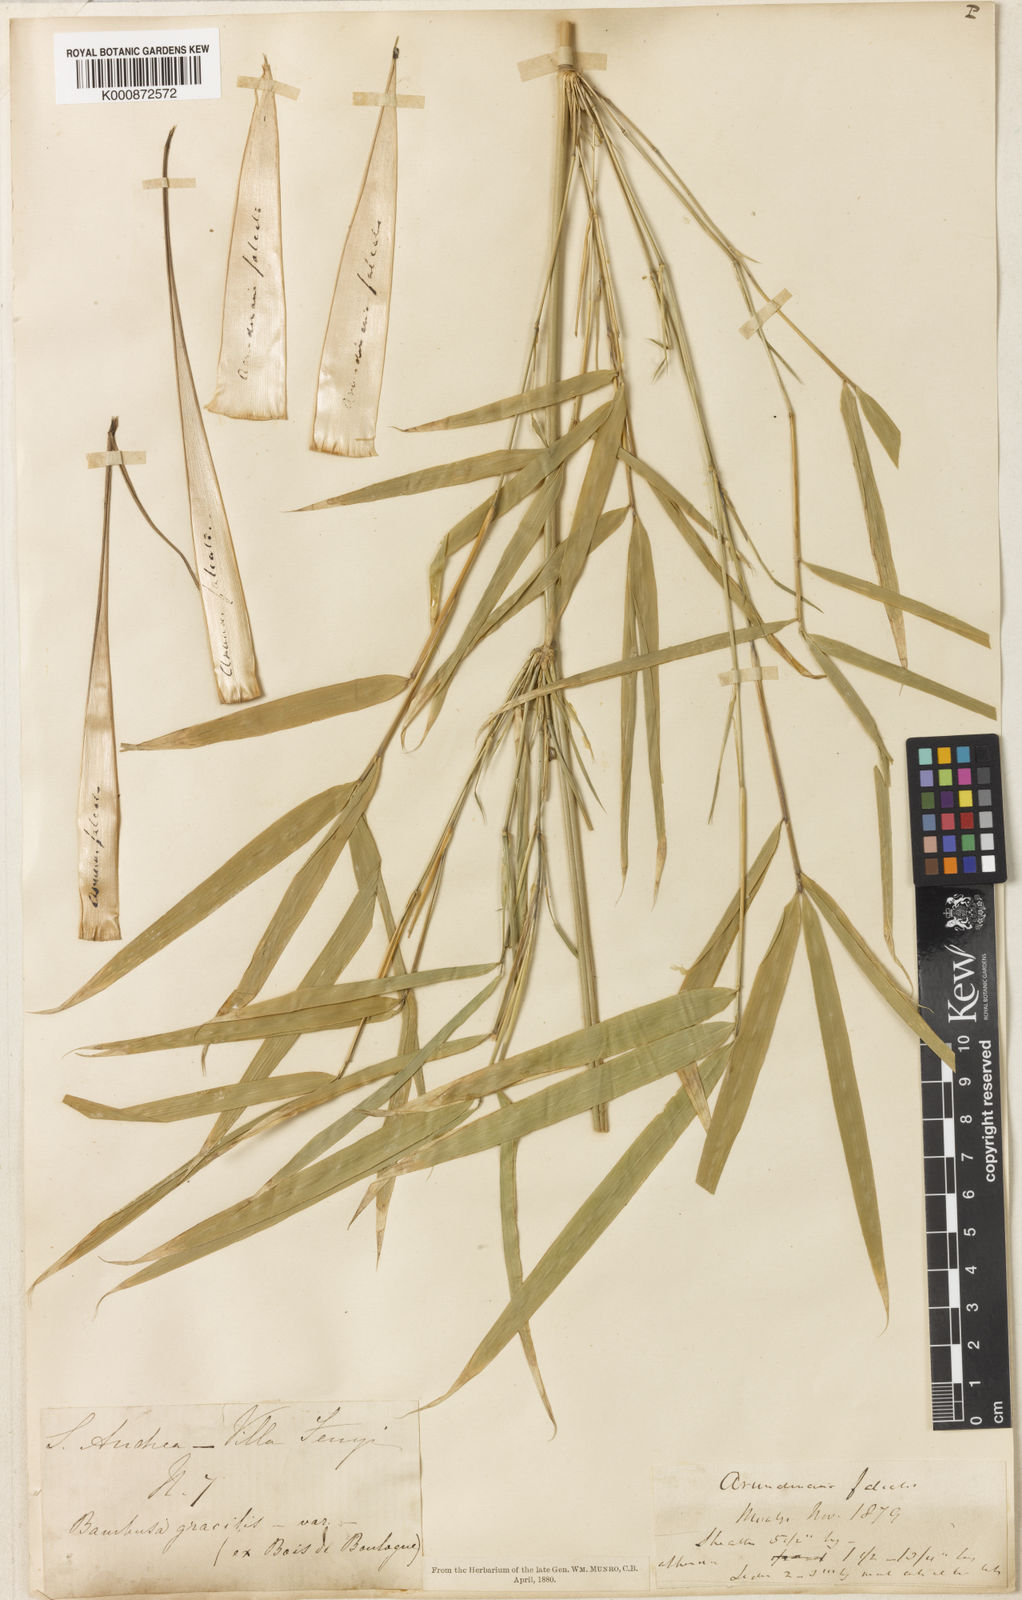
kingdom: Plantae
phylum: Tracheophyta
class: Liliopsida
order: Poales
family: Poaceae
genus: Drepanostachyum
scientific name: Drepanostachyum falcatum
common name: Himalayan bamboo
